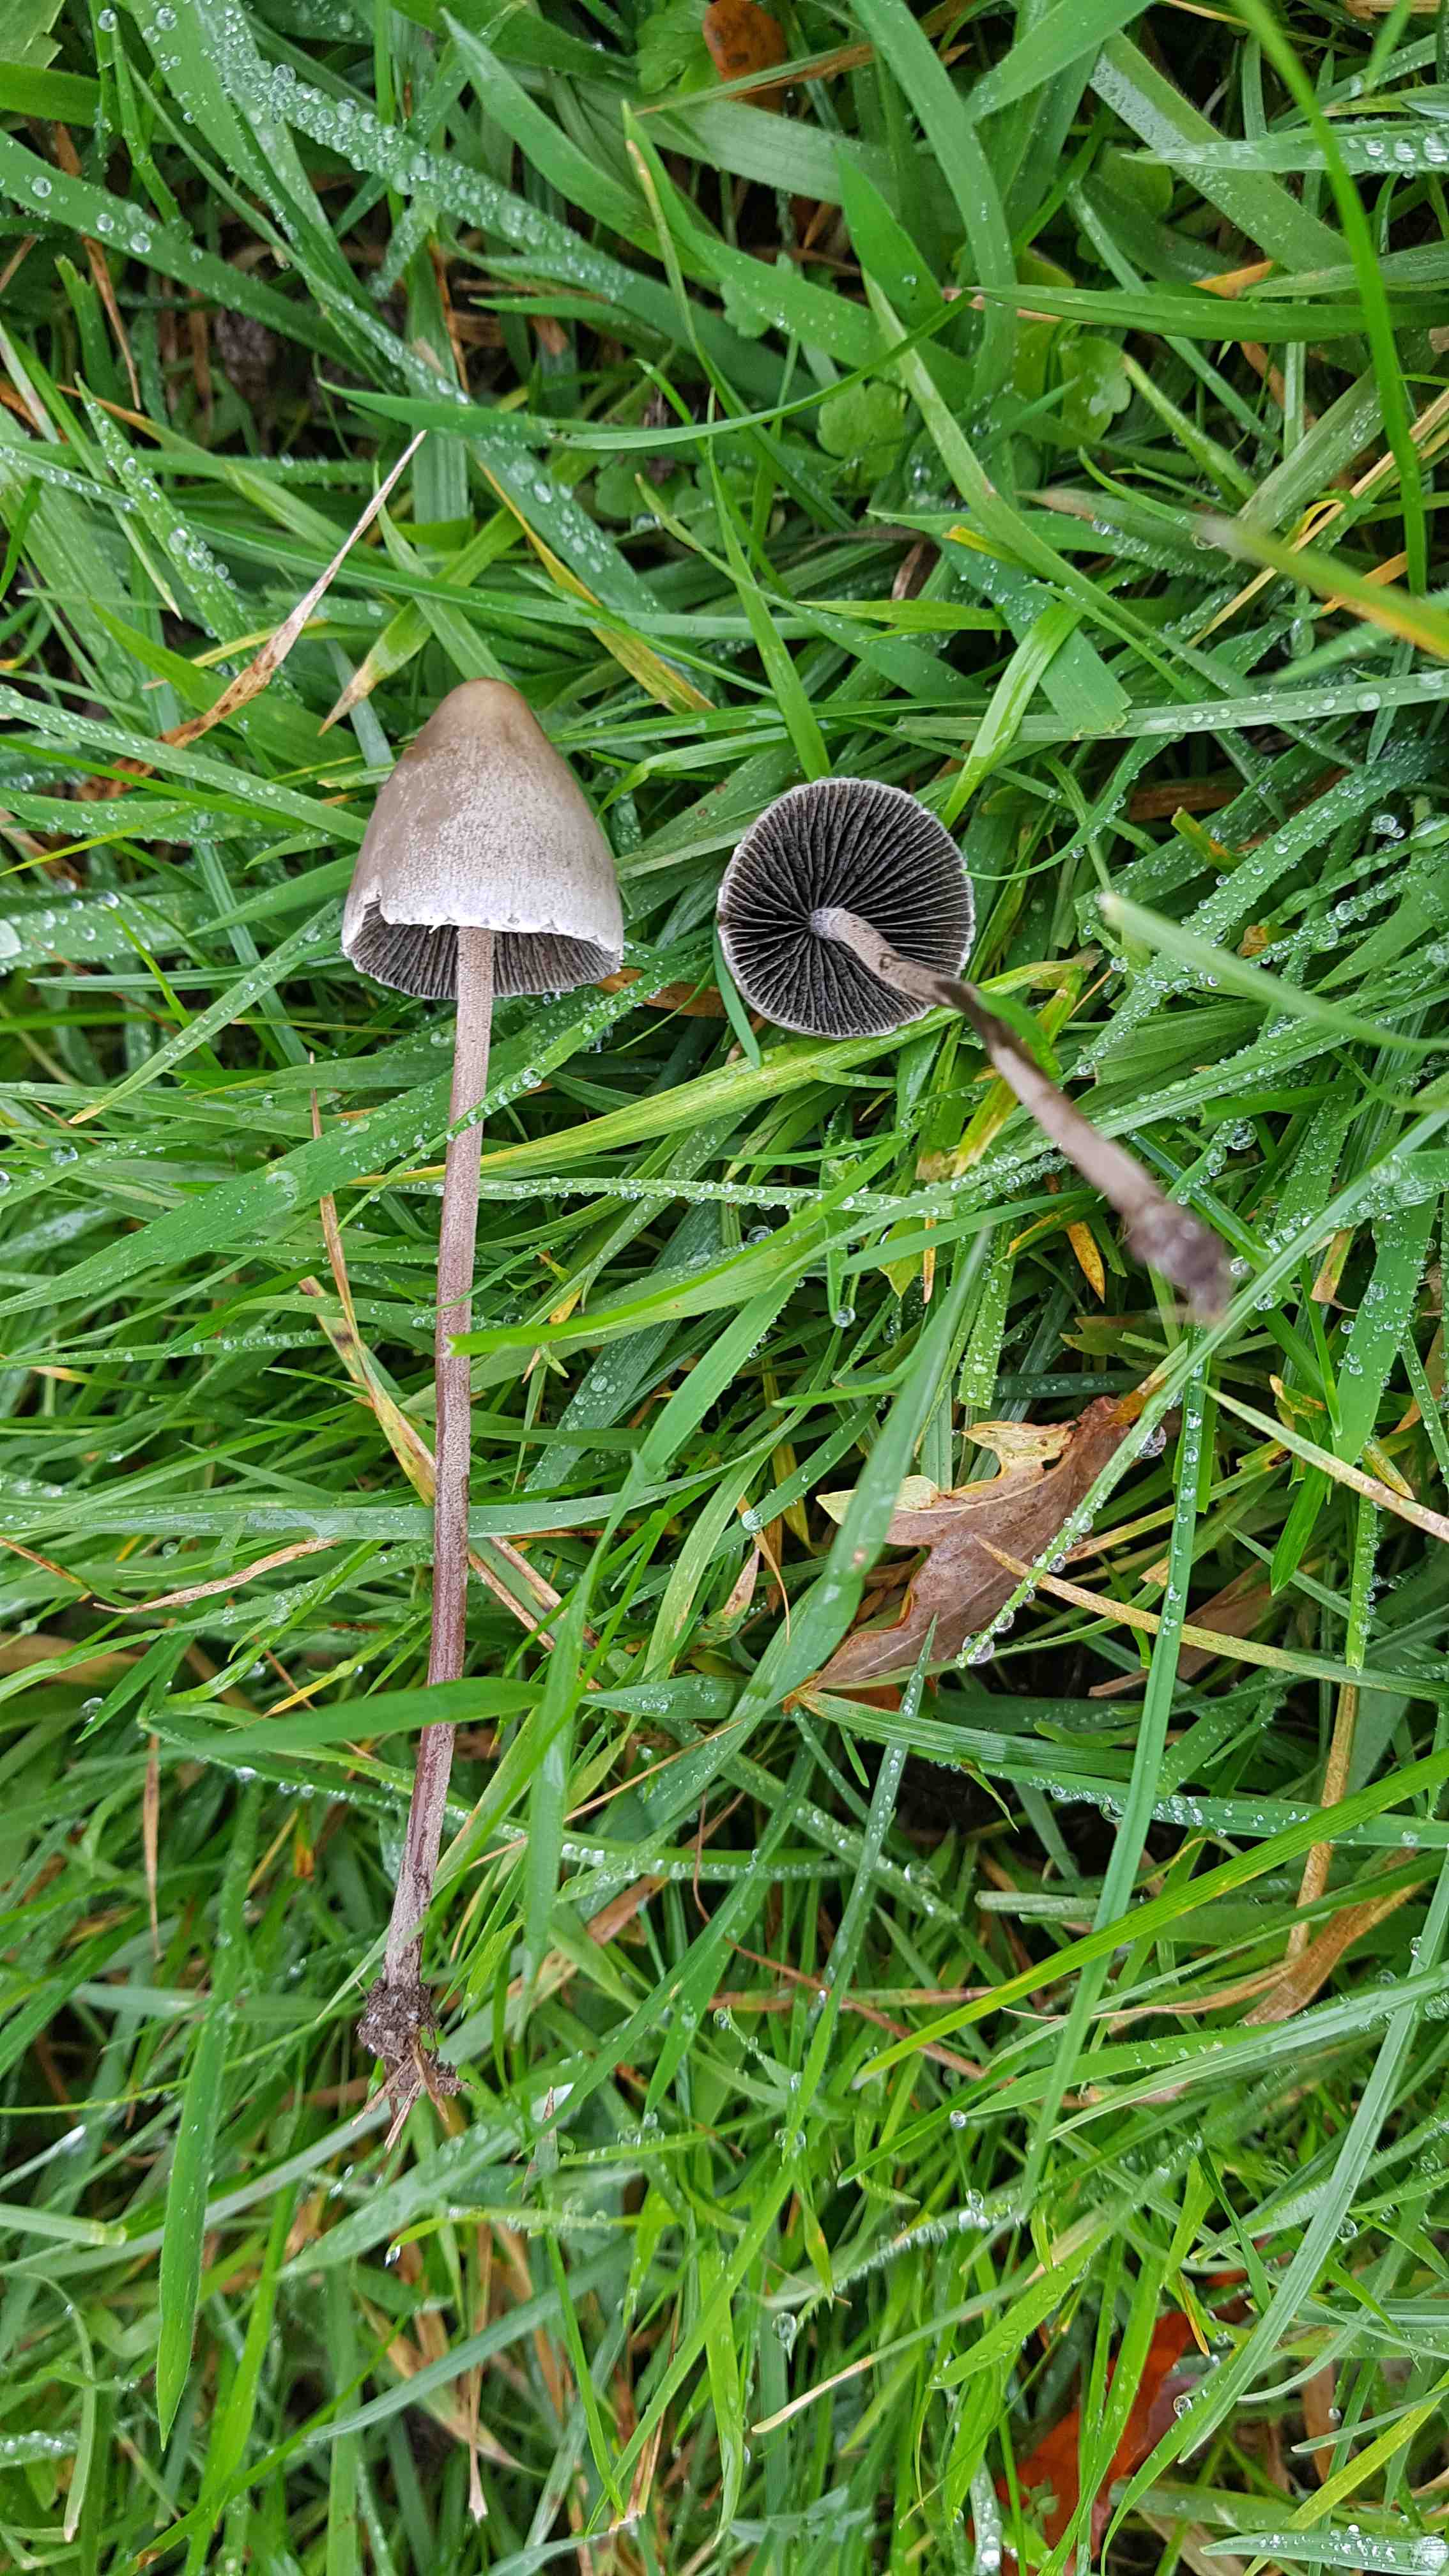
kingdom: Fungi
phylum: Basidiomycota
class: Agaricomycetes
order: Agaricales
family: Bolbitiaceae
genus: Panaeolus
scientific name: Panaeolus papilionaceus
